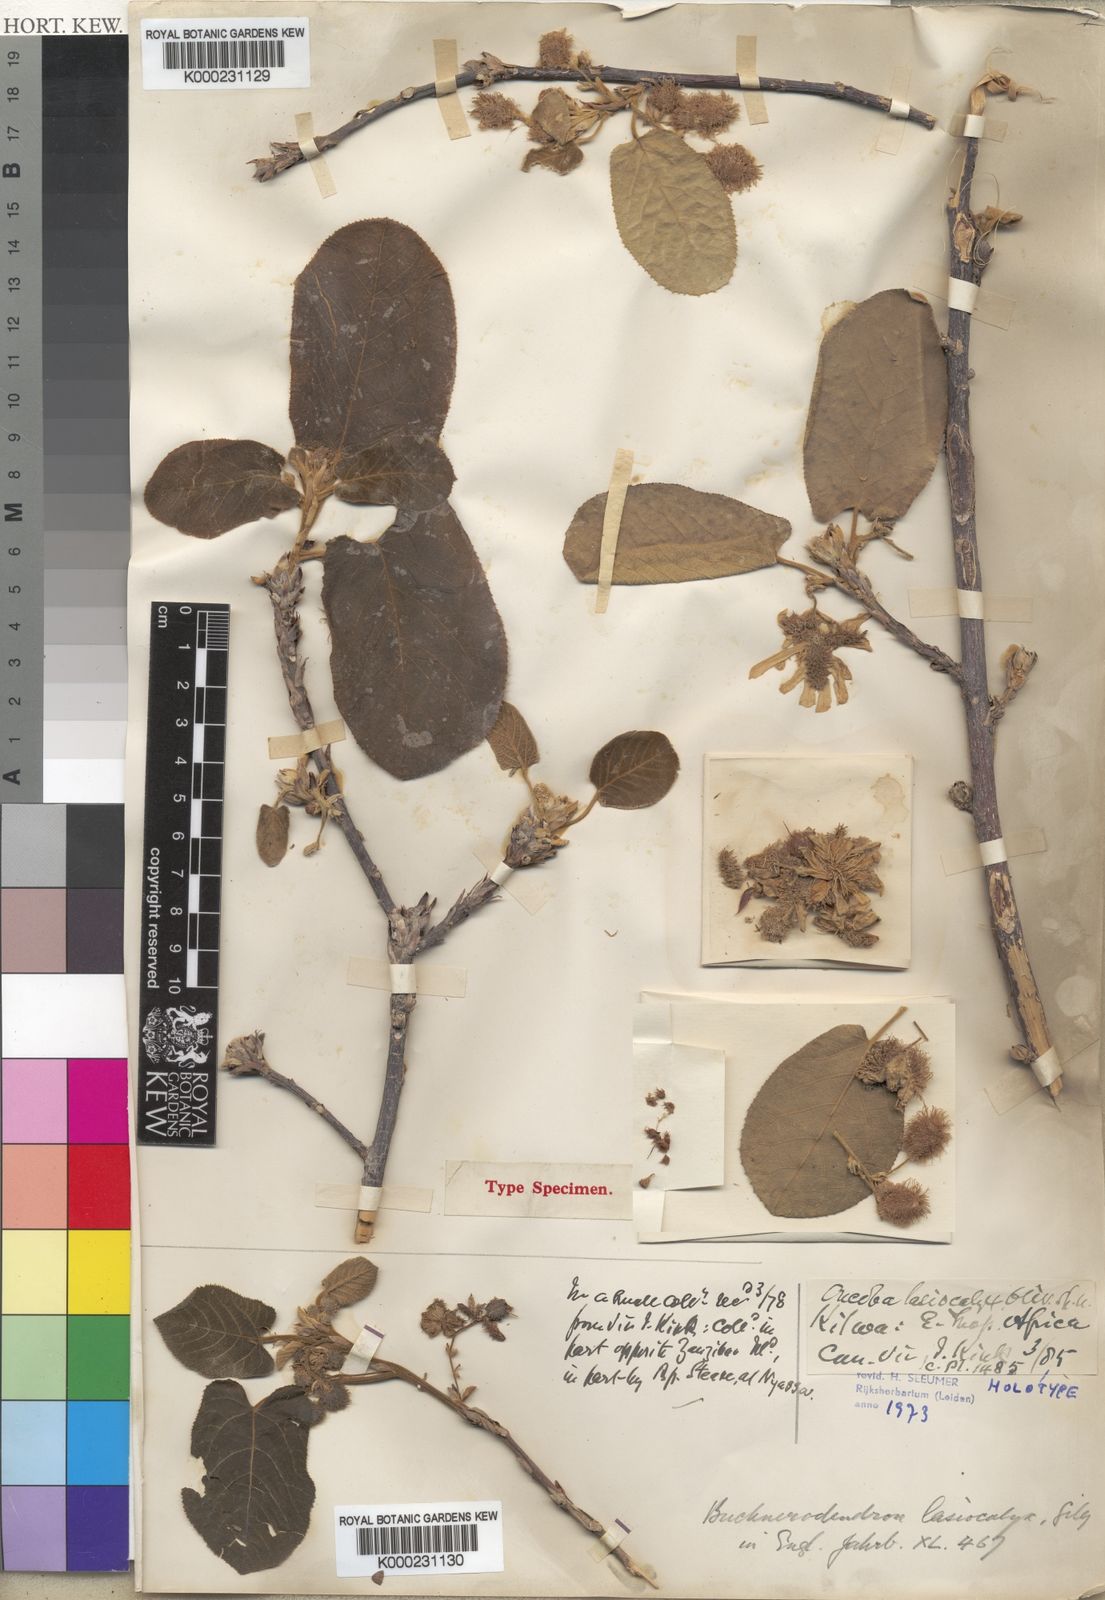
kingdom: Plantae
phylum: Tracheophyta
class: Magnoliopsida
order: Malpighiales
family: Achariaceae
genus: Buchnerodendron
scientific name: Buchnerodendron lasiocalyx
